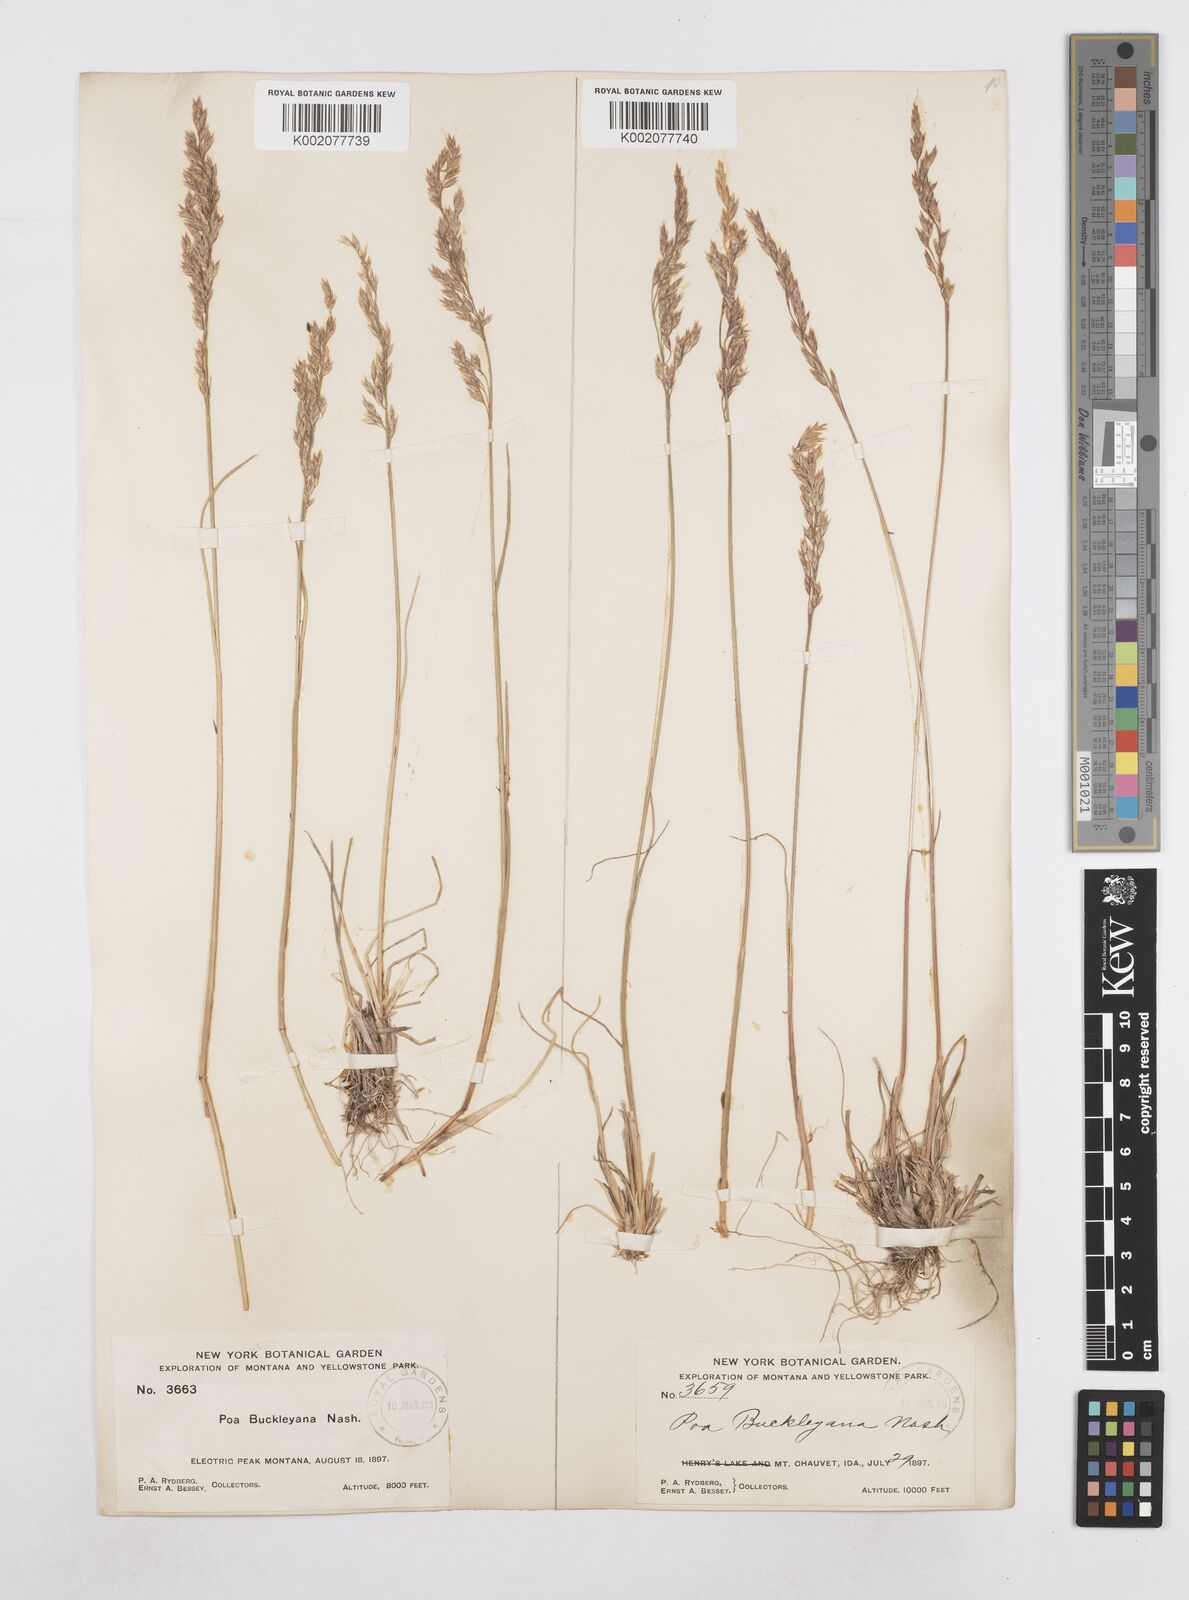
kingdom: Plantae
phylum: Tracheophyta
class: Liliopsida
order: Poales
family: Poaceae
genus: Poa
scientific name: Poa secunda
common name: Sandberg bluegrass
